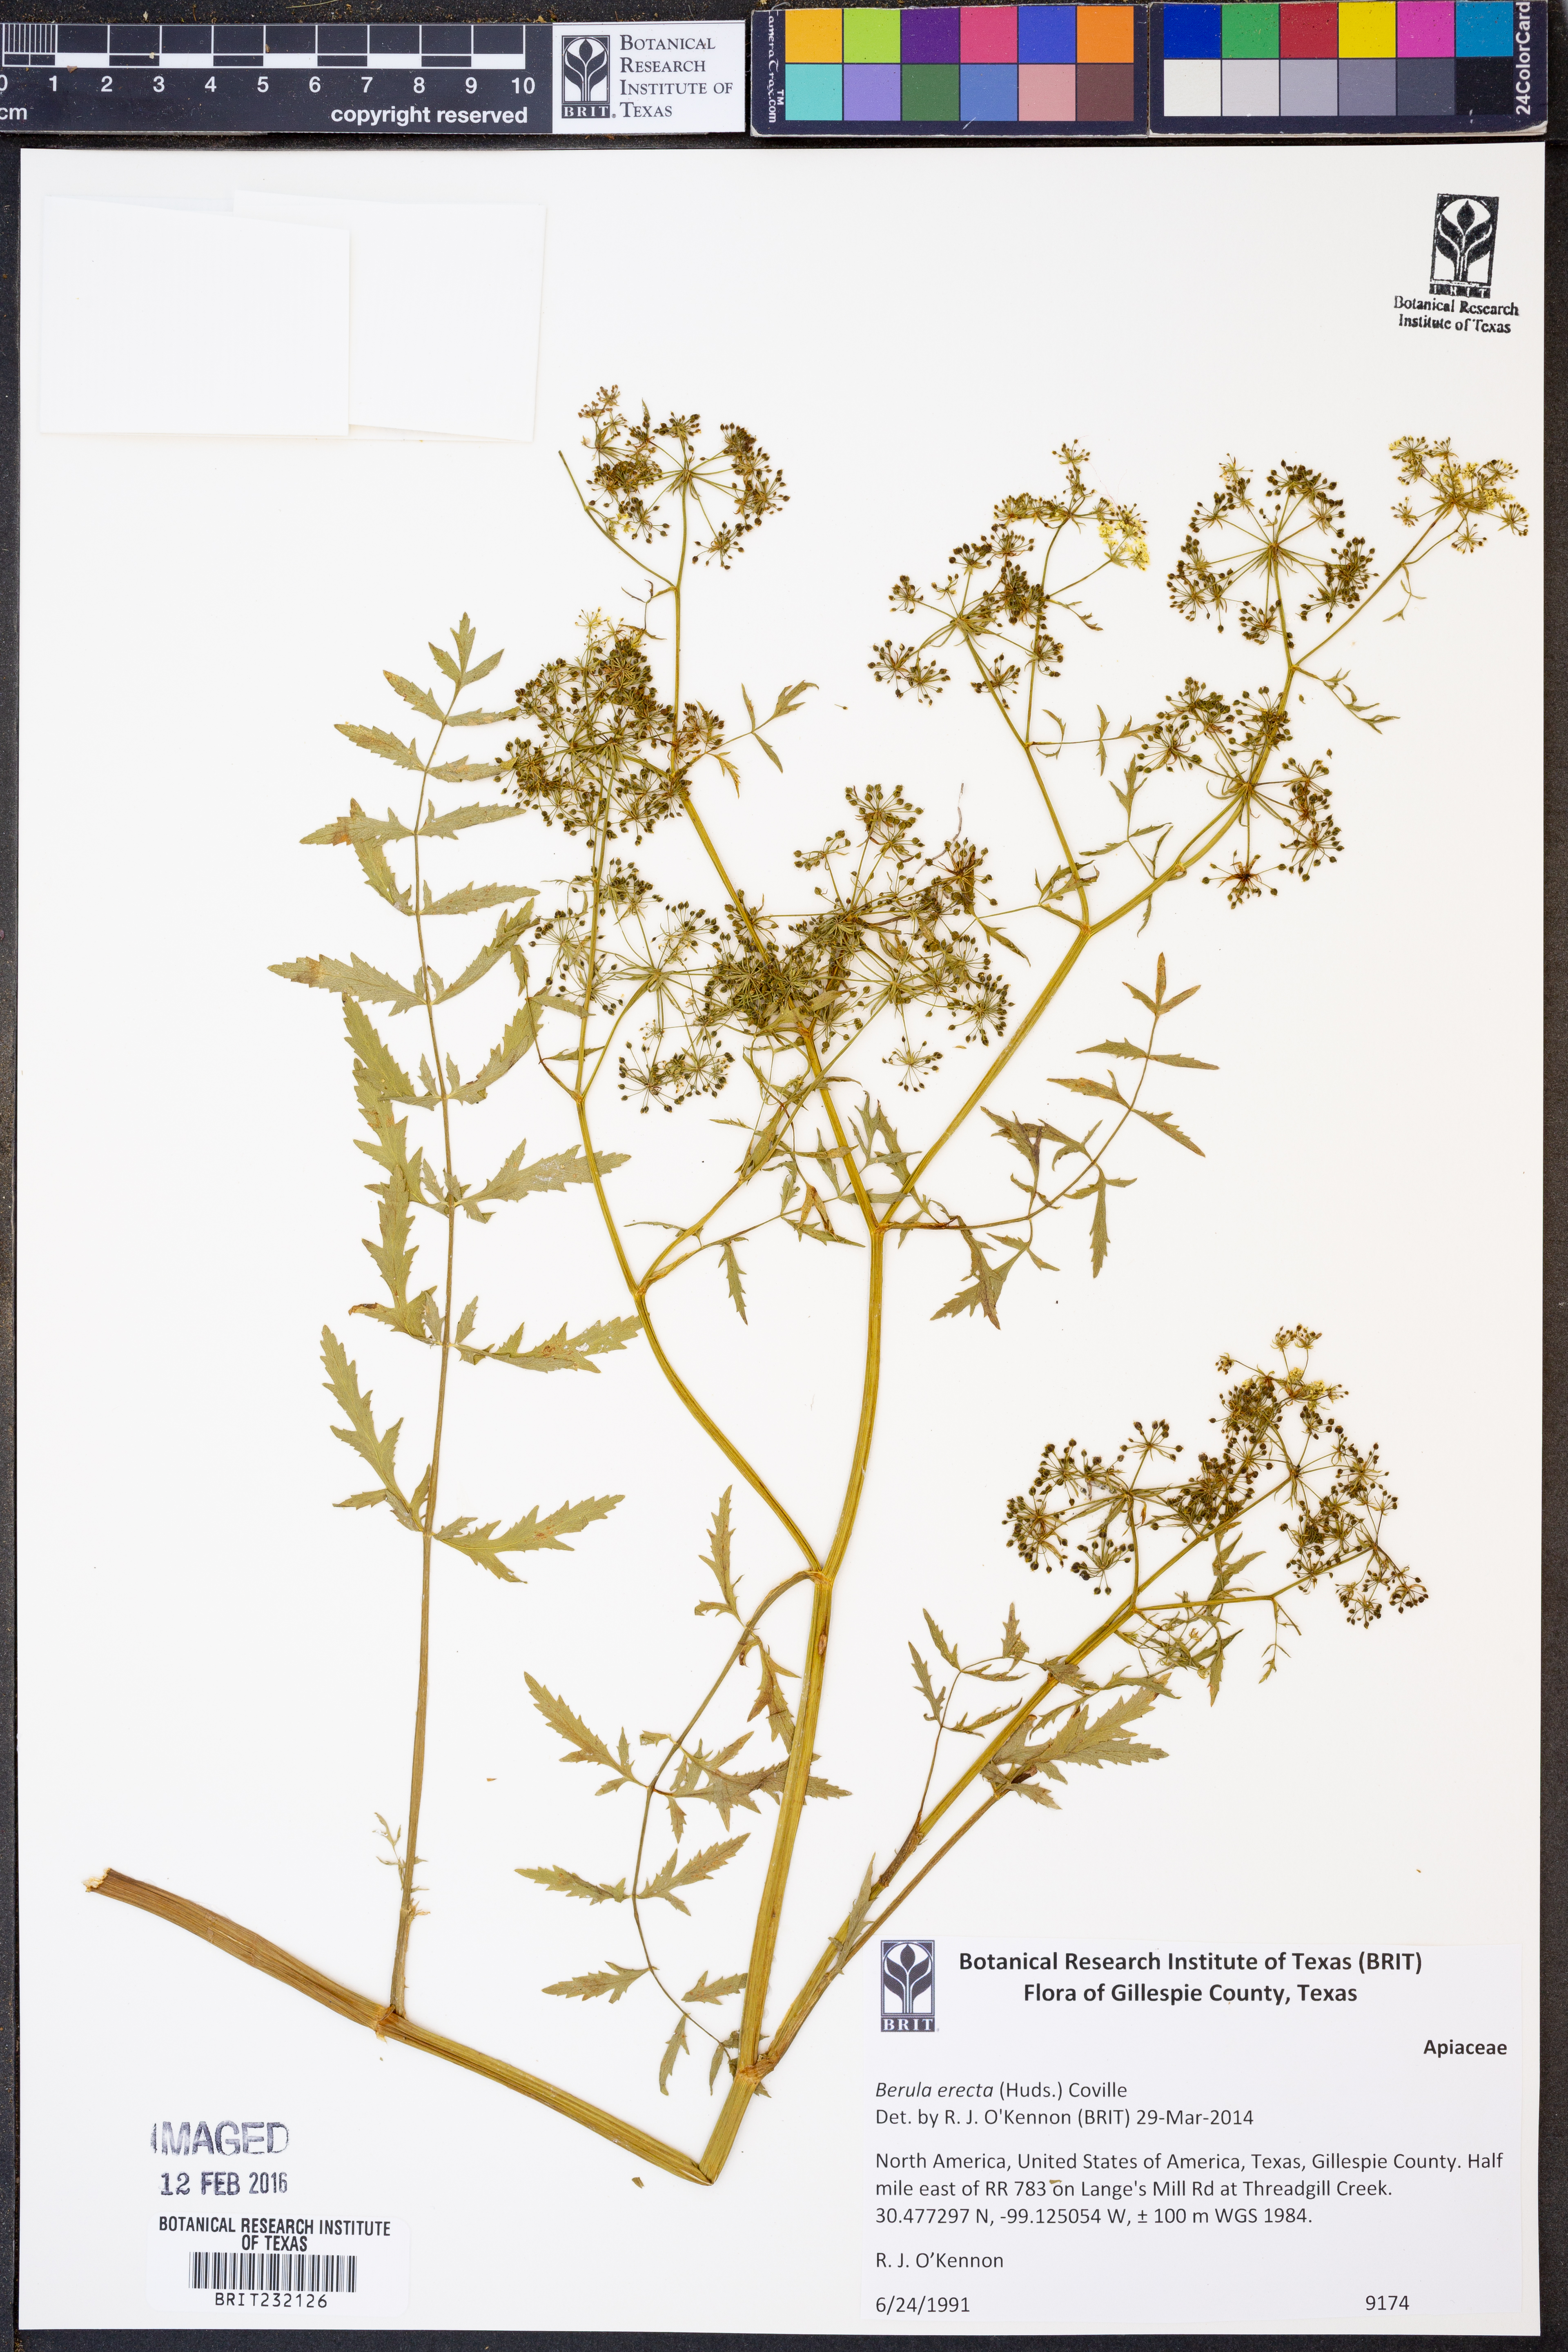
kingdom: Plantae
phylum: Tracheophyta
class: Magnoliopsida
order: Apiales
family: Apiaceae
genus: Berula
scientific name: Berula erecta
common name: Lesser water-parsnip
